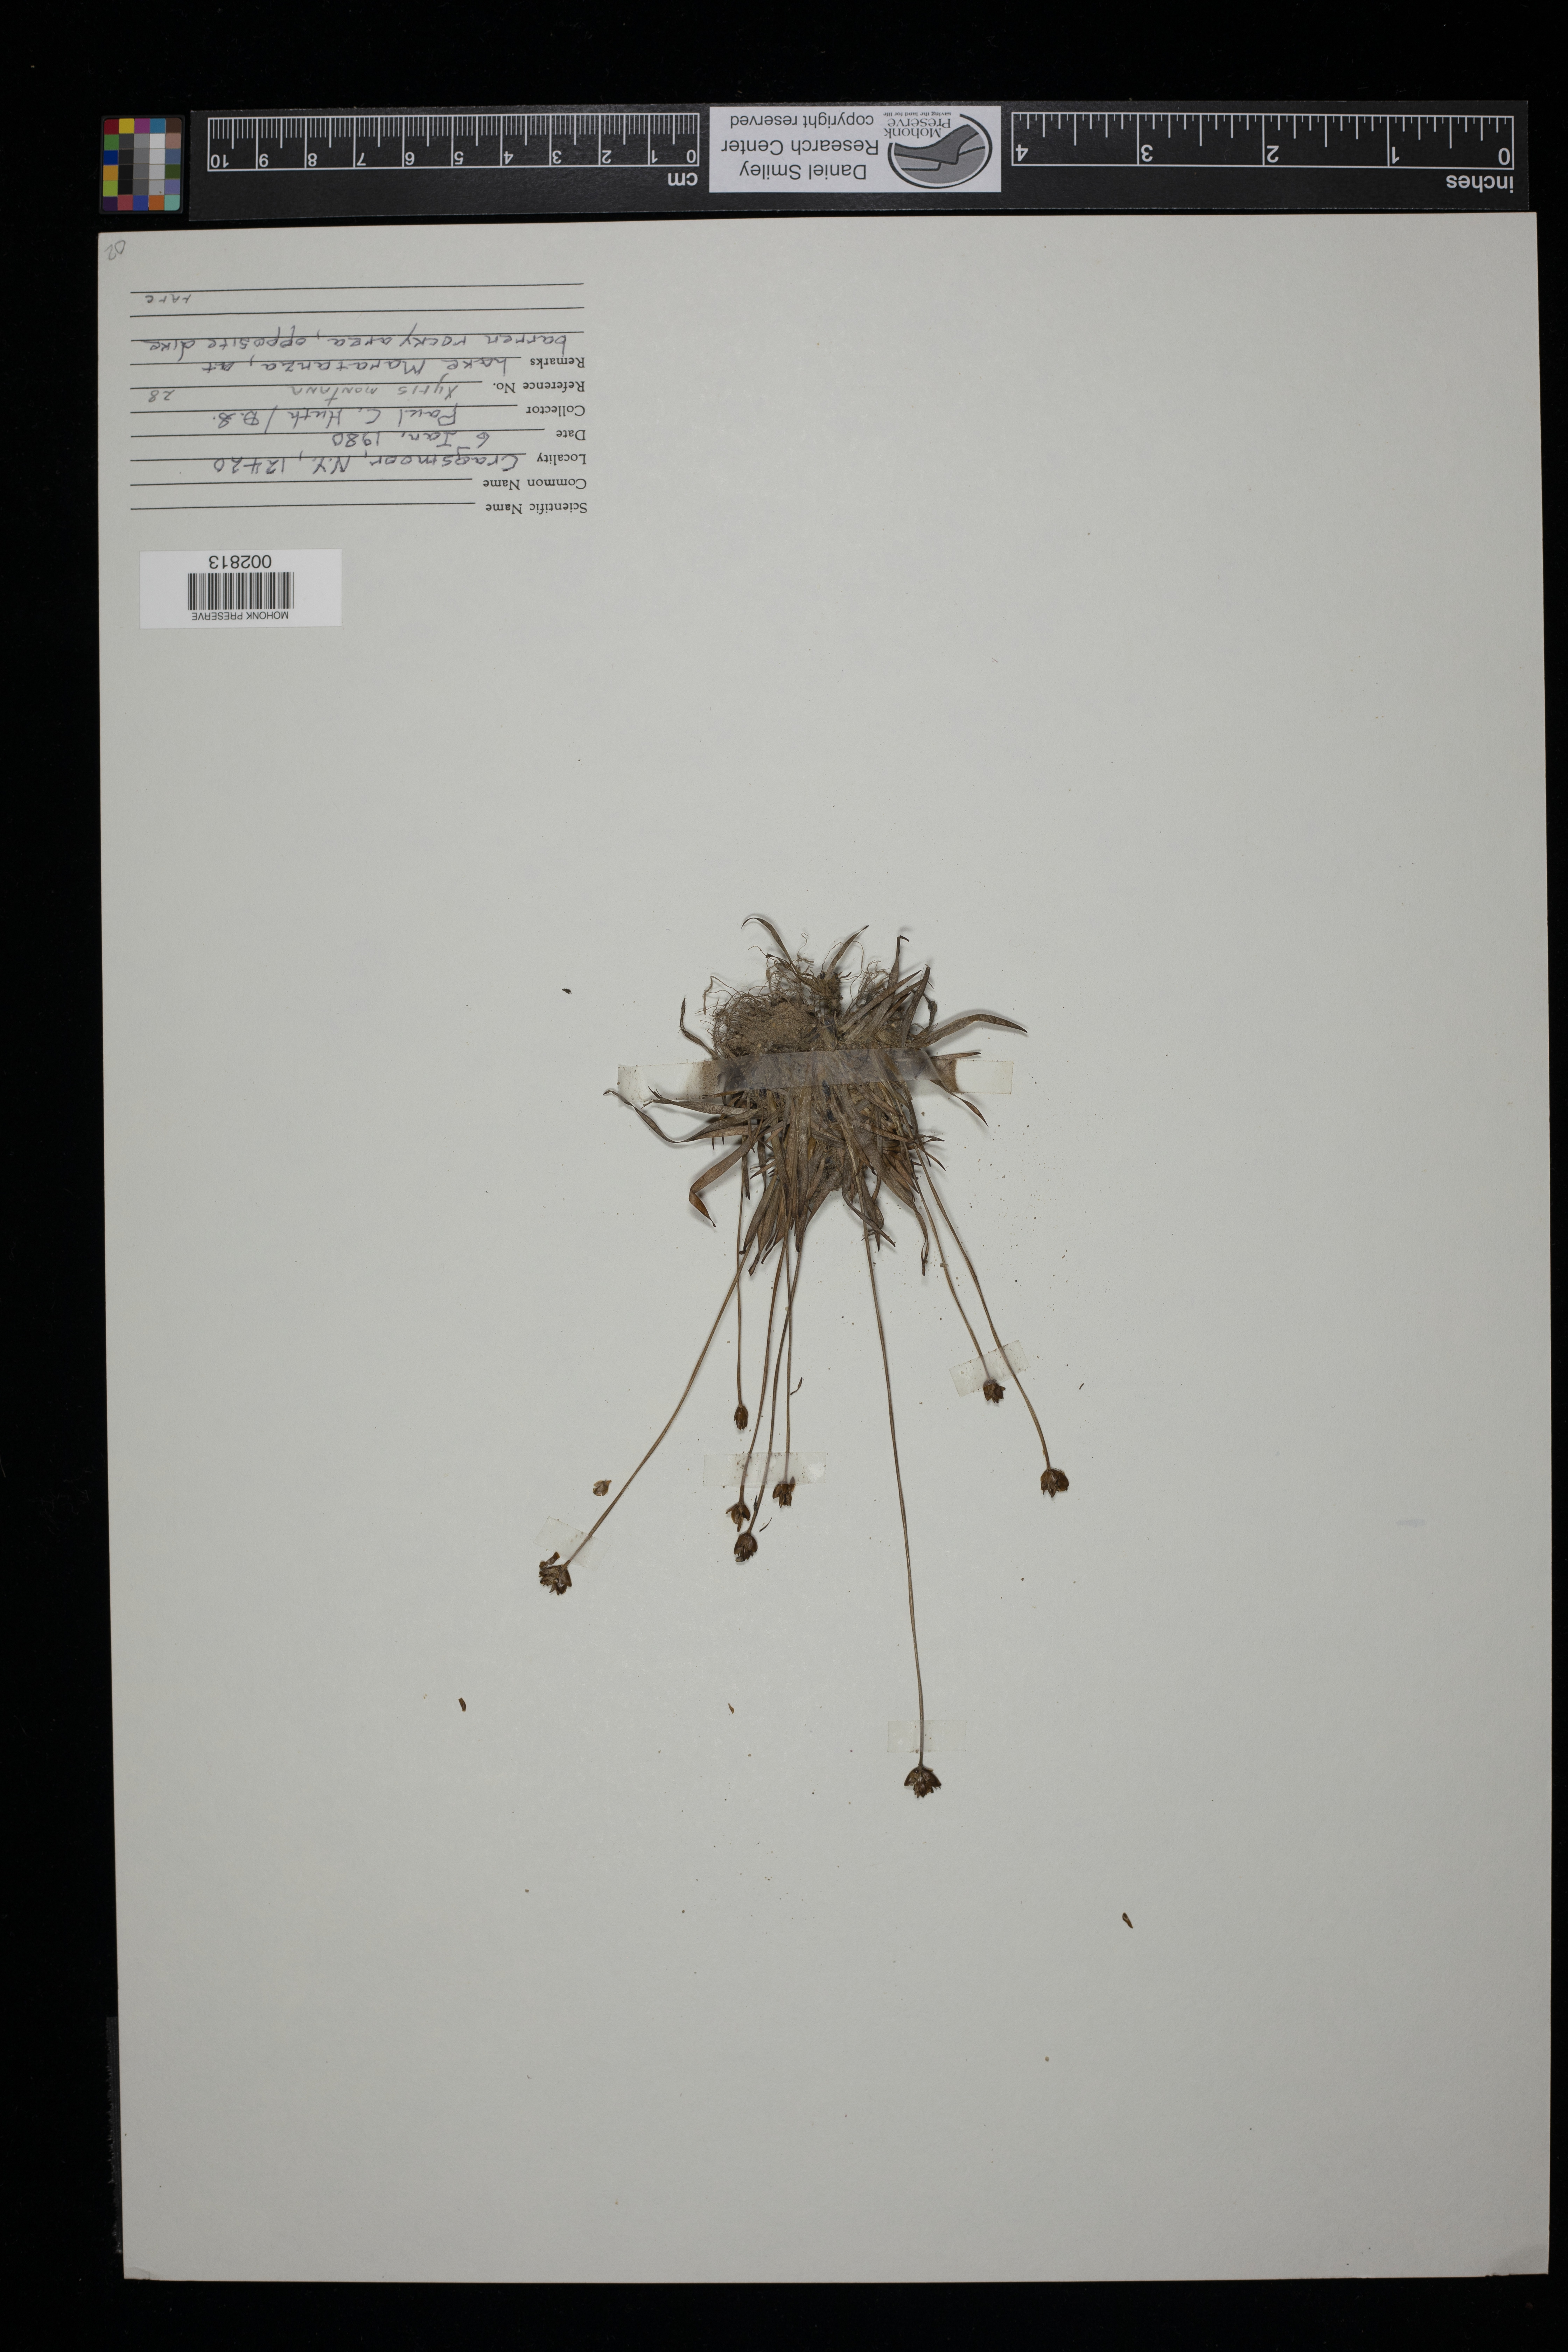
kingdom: Plantae
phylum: Tracheophyta
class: Liliopsida
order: Poales
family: Xyridaceae
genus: Xyris
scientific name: Xyris montana
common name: Northern yellow-eyed-grass
